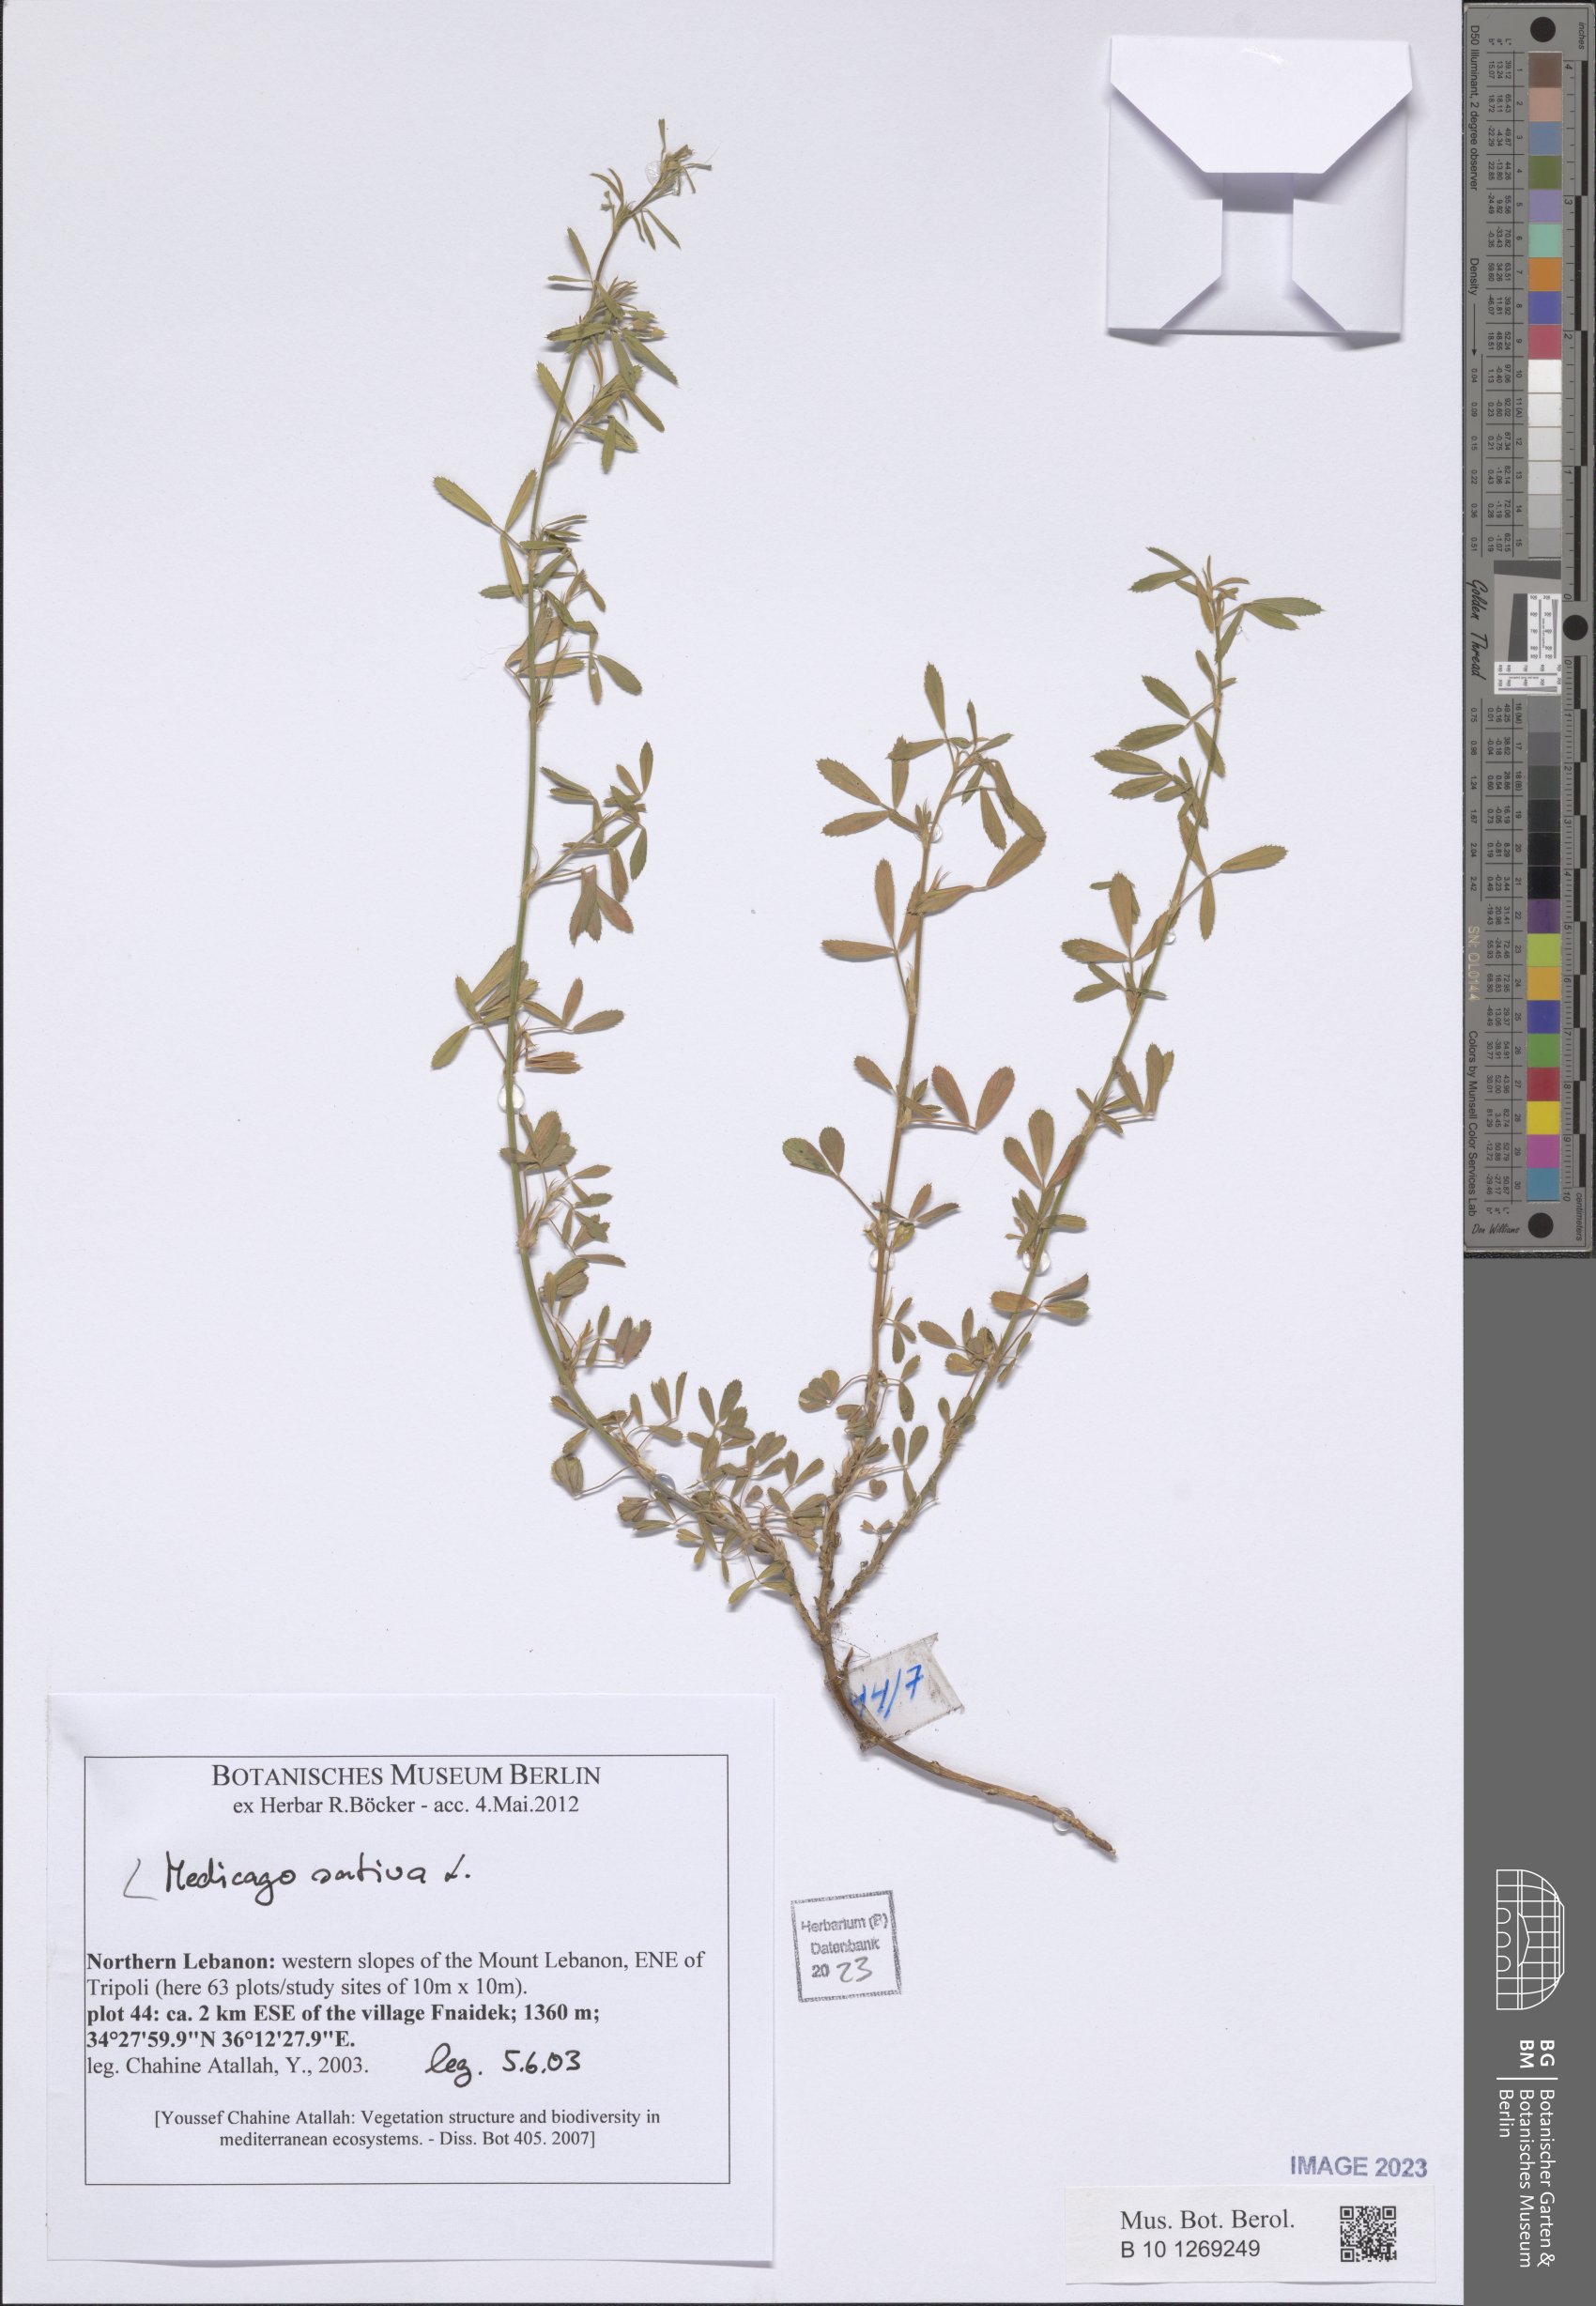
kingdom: Plantae
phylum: Tracheophyta
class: Magnoliopsida
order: Fabales
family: Fabaceae
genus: Medicago
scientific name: Medicago sativa
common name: Alfalfa
